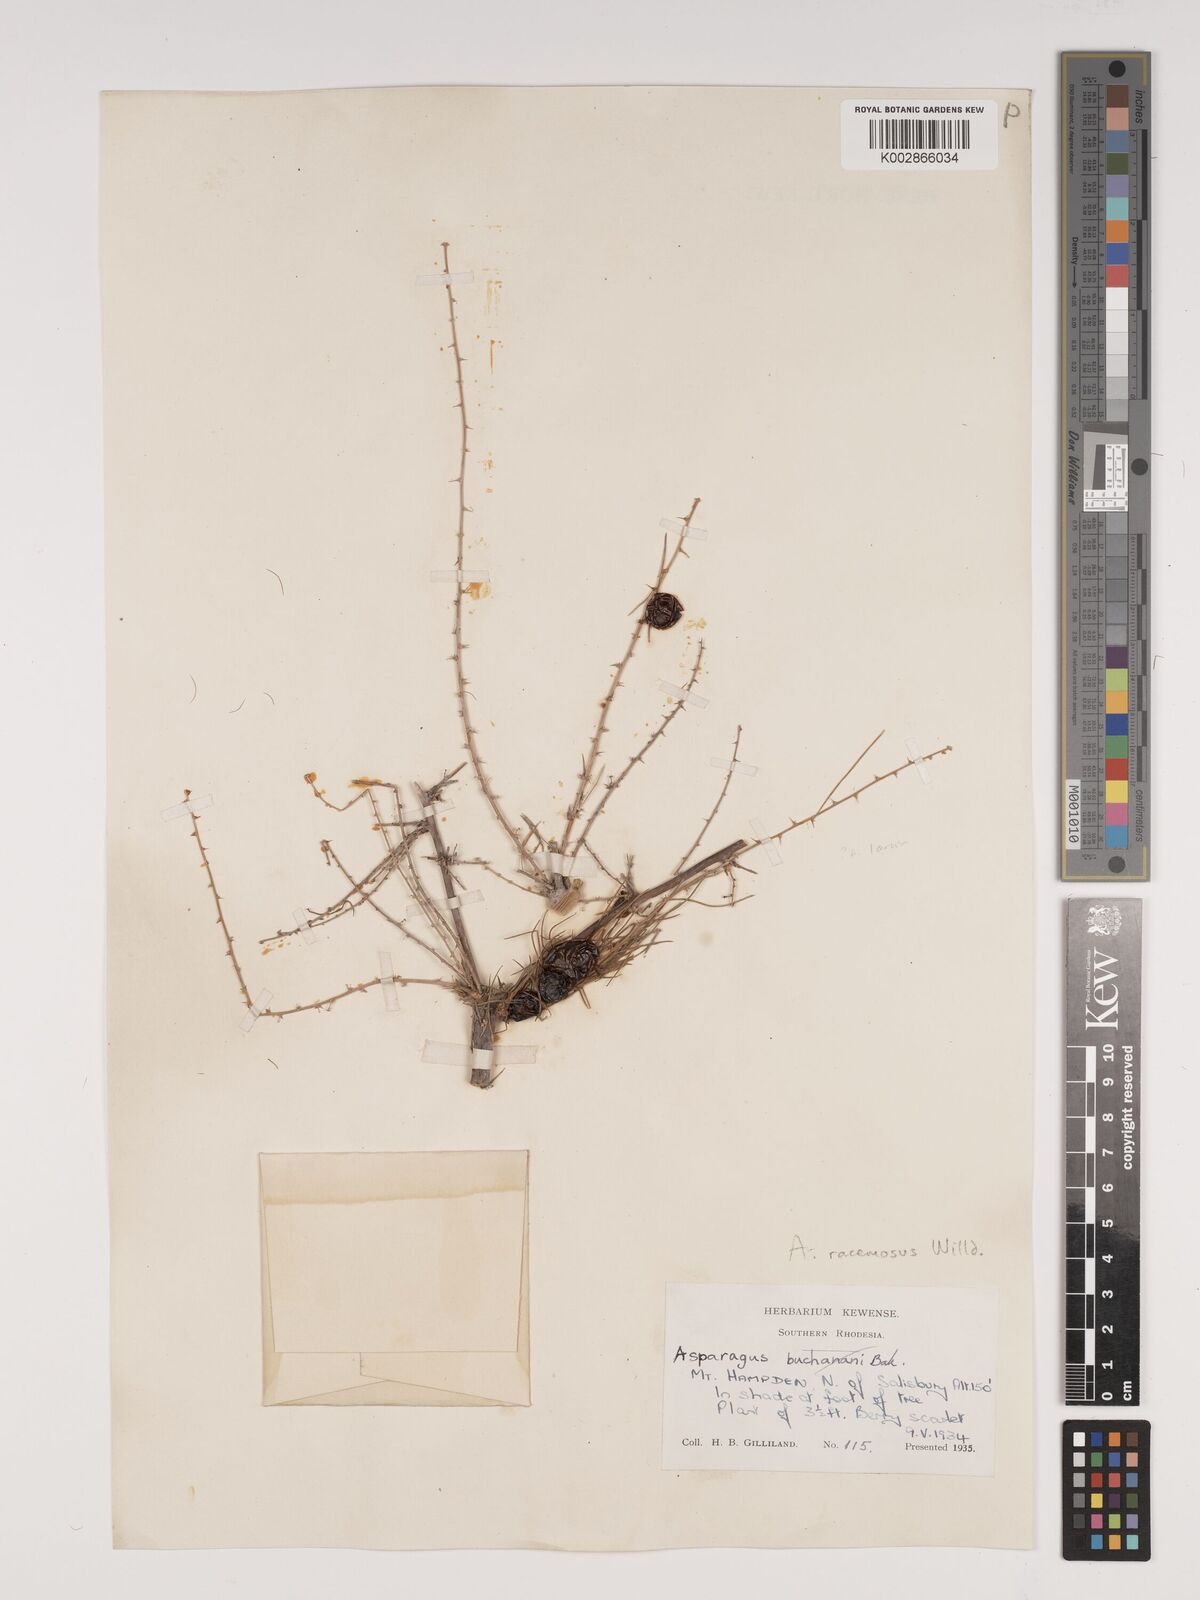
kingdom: Plantae
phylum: Tracheophyta
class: Liliopsida
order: Asparagales
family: Asparagaceae
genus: Asparagus
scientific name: Asparagus racemosus
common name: Asparagus-fern
